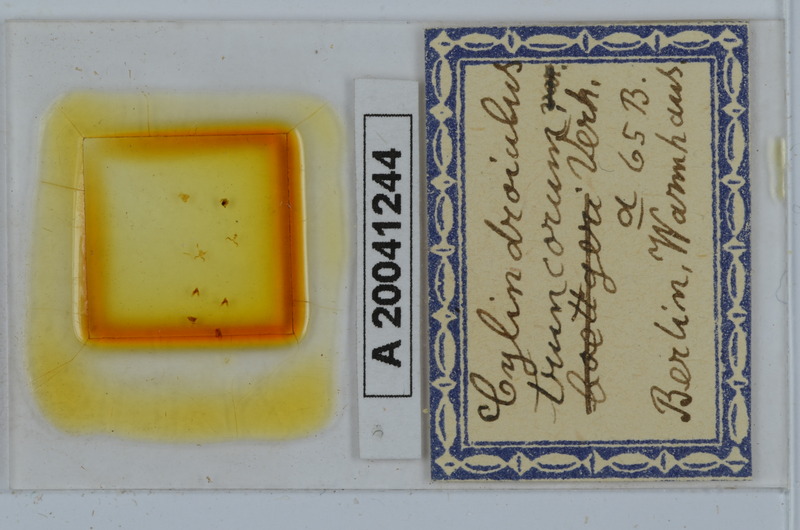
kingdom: Animalia
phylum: Arthropoda
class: Diplopoda
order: Julida
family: Julidae
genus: Cylindroiulus
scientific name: Cylindroiulus truncorum
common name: Millipede
